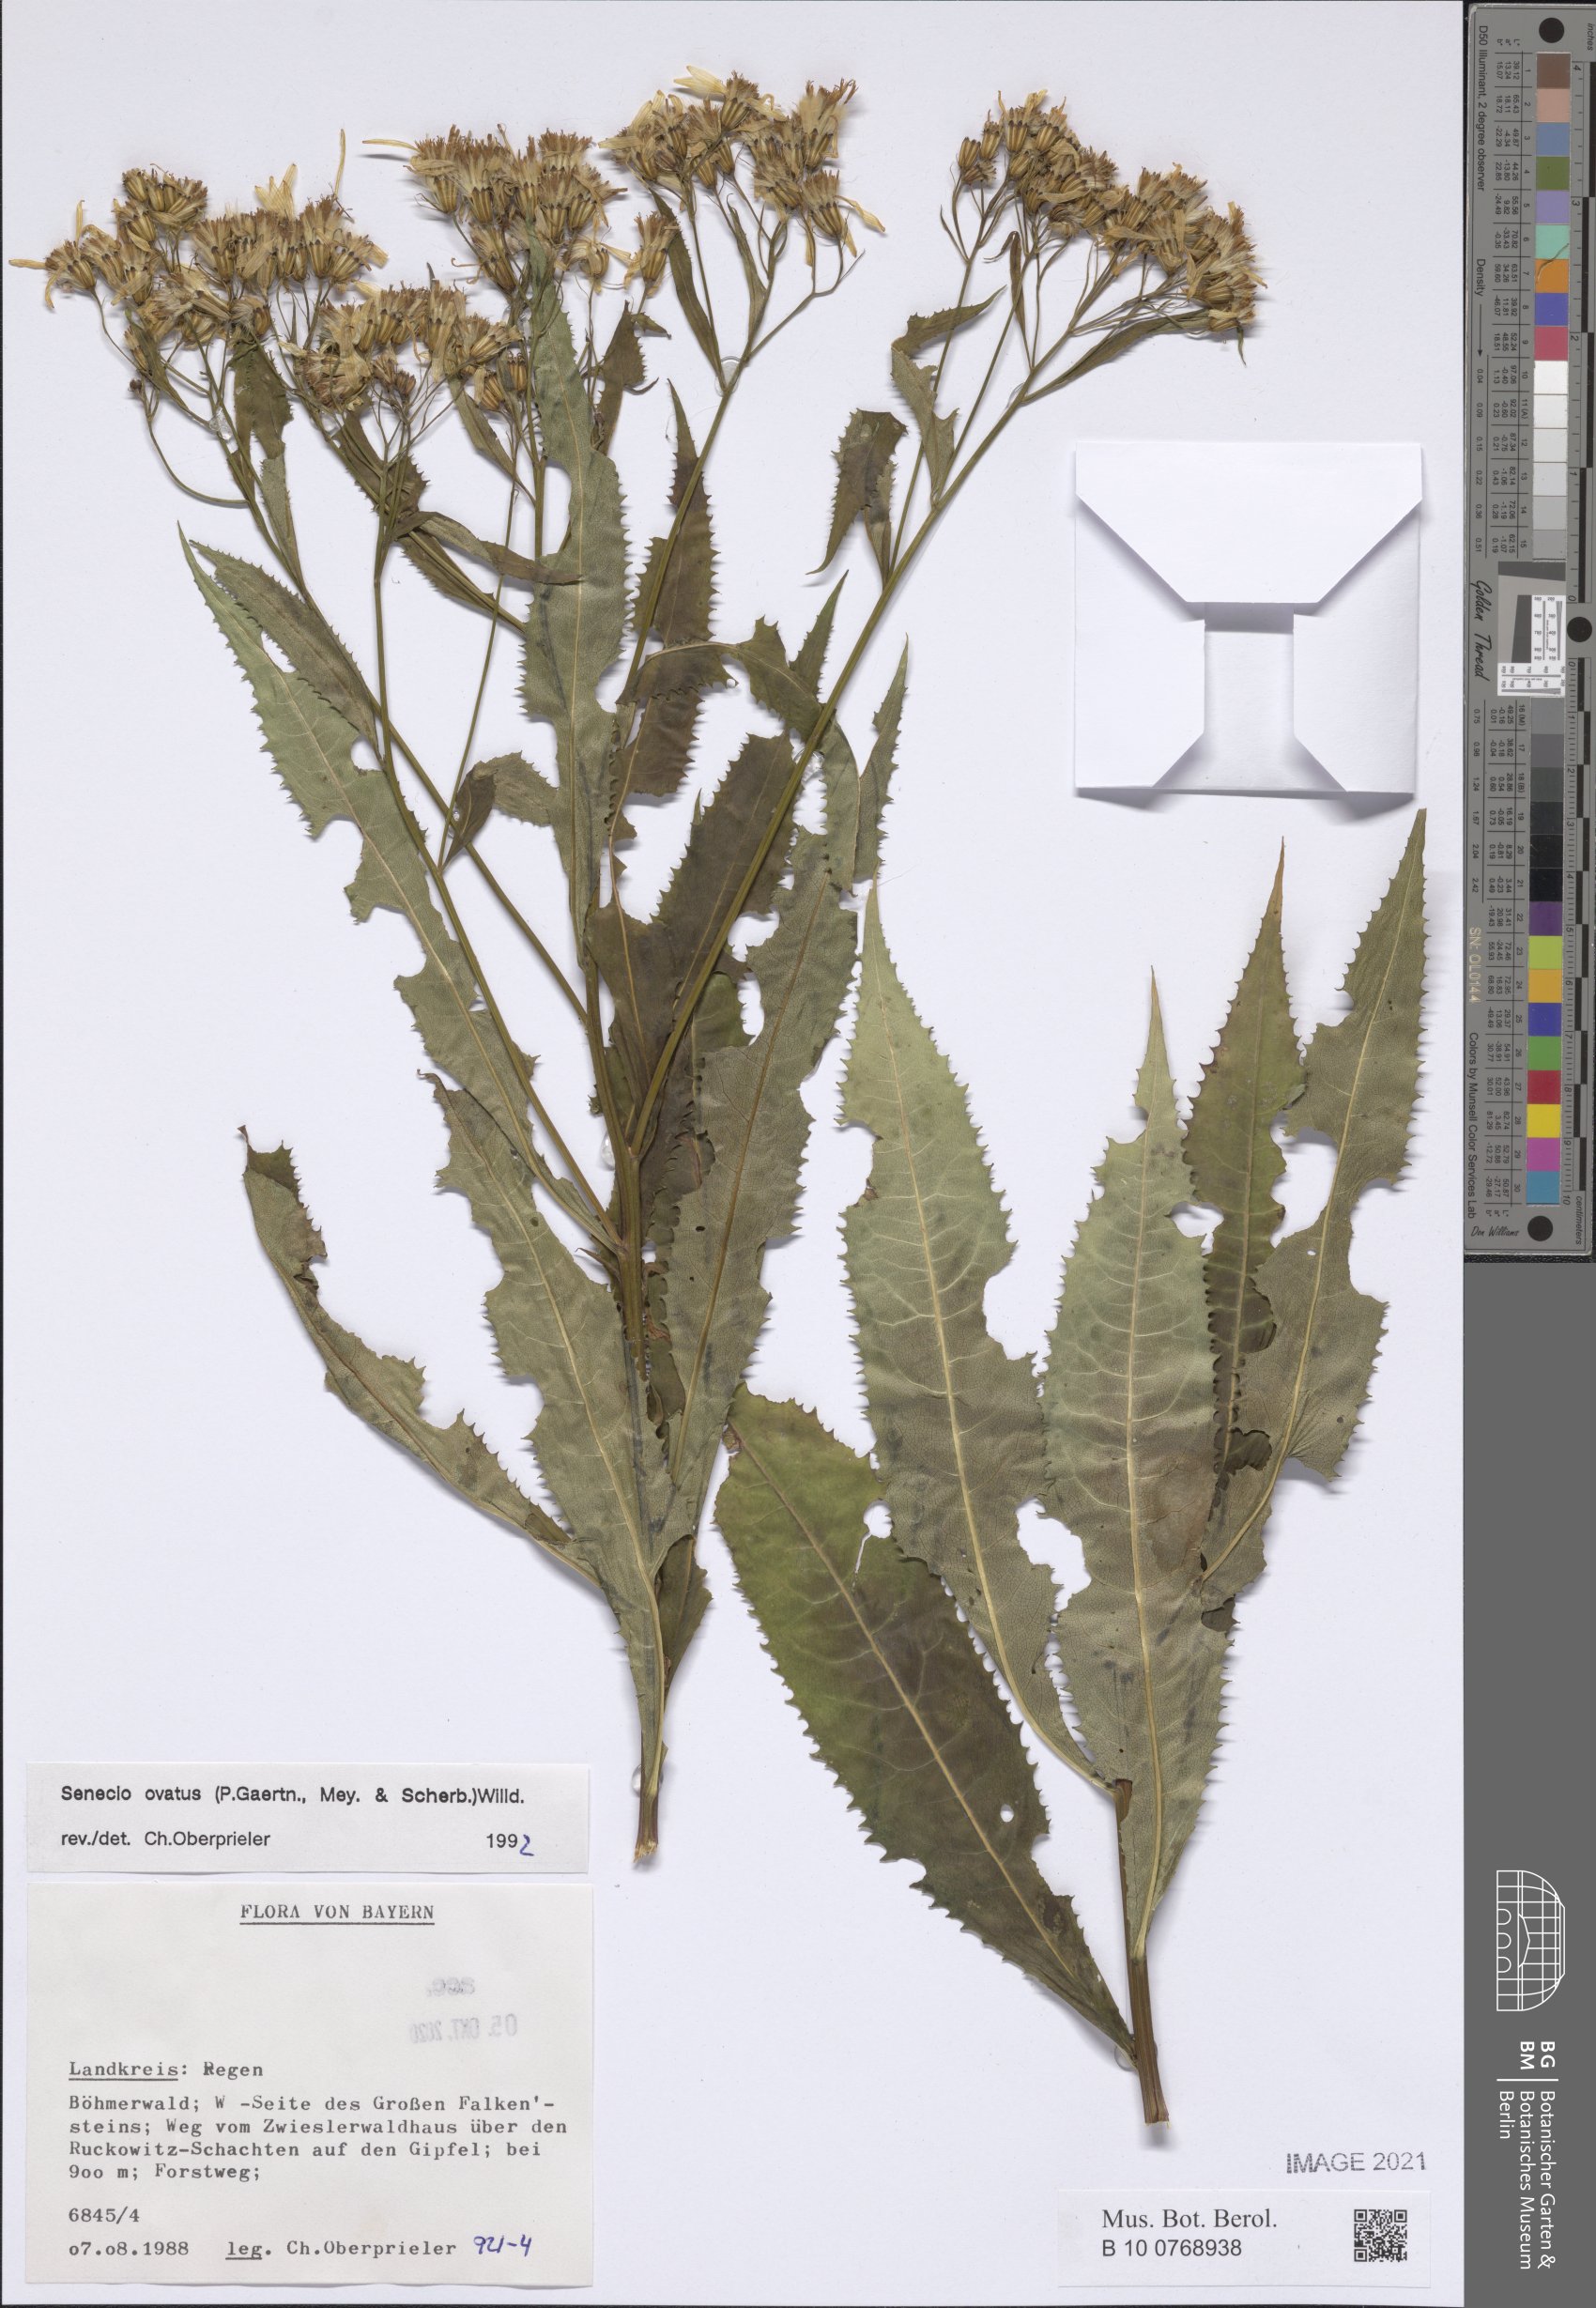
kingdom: Plantae
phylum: Tracheophyta
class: Magnoliopsida
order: Asterales
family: Asteraceae
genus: Senecio
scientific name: Senecio ovatus
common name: Wood ragwort
